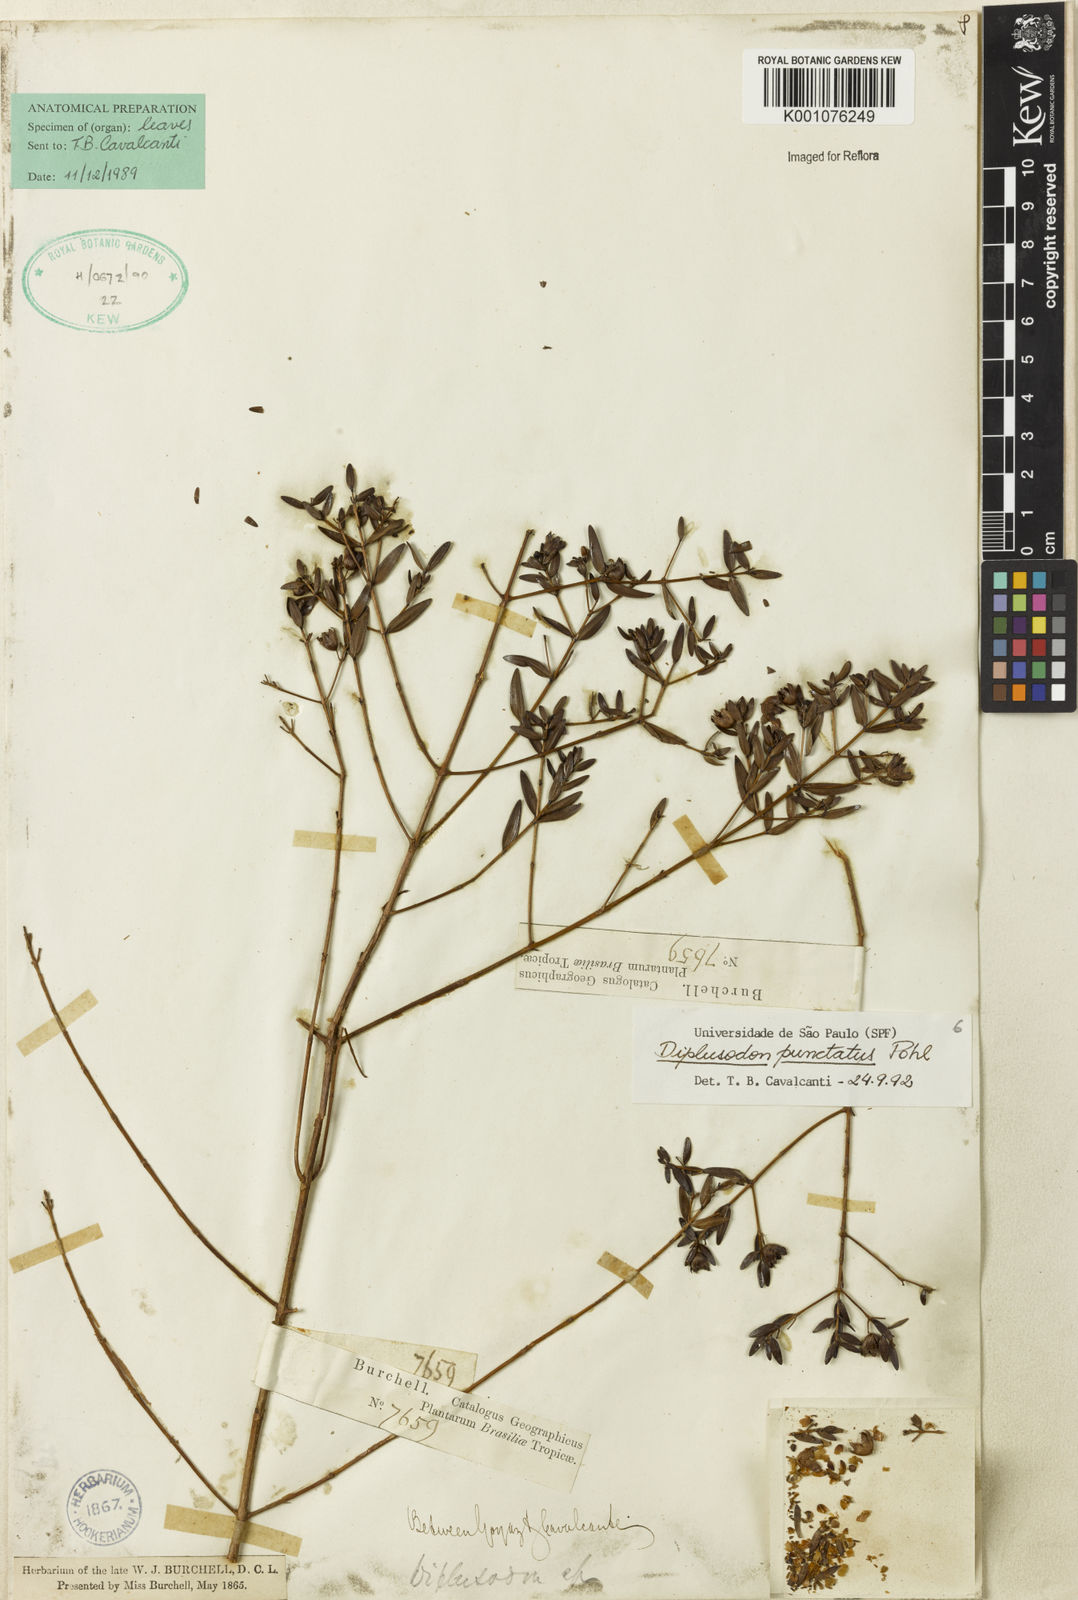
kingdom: Plantae
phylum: Tracheophyta
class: Magnoliopsida
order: Myrtales
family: Lythraceae
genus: Diplusodon
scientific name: Diplusodon punctatus
